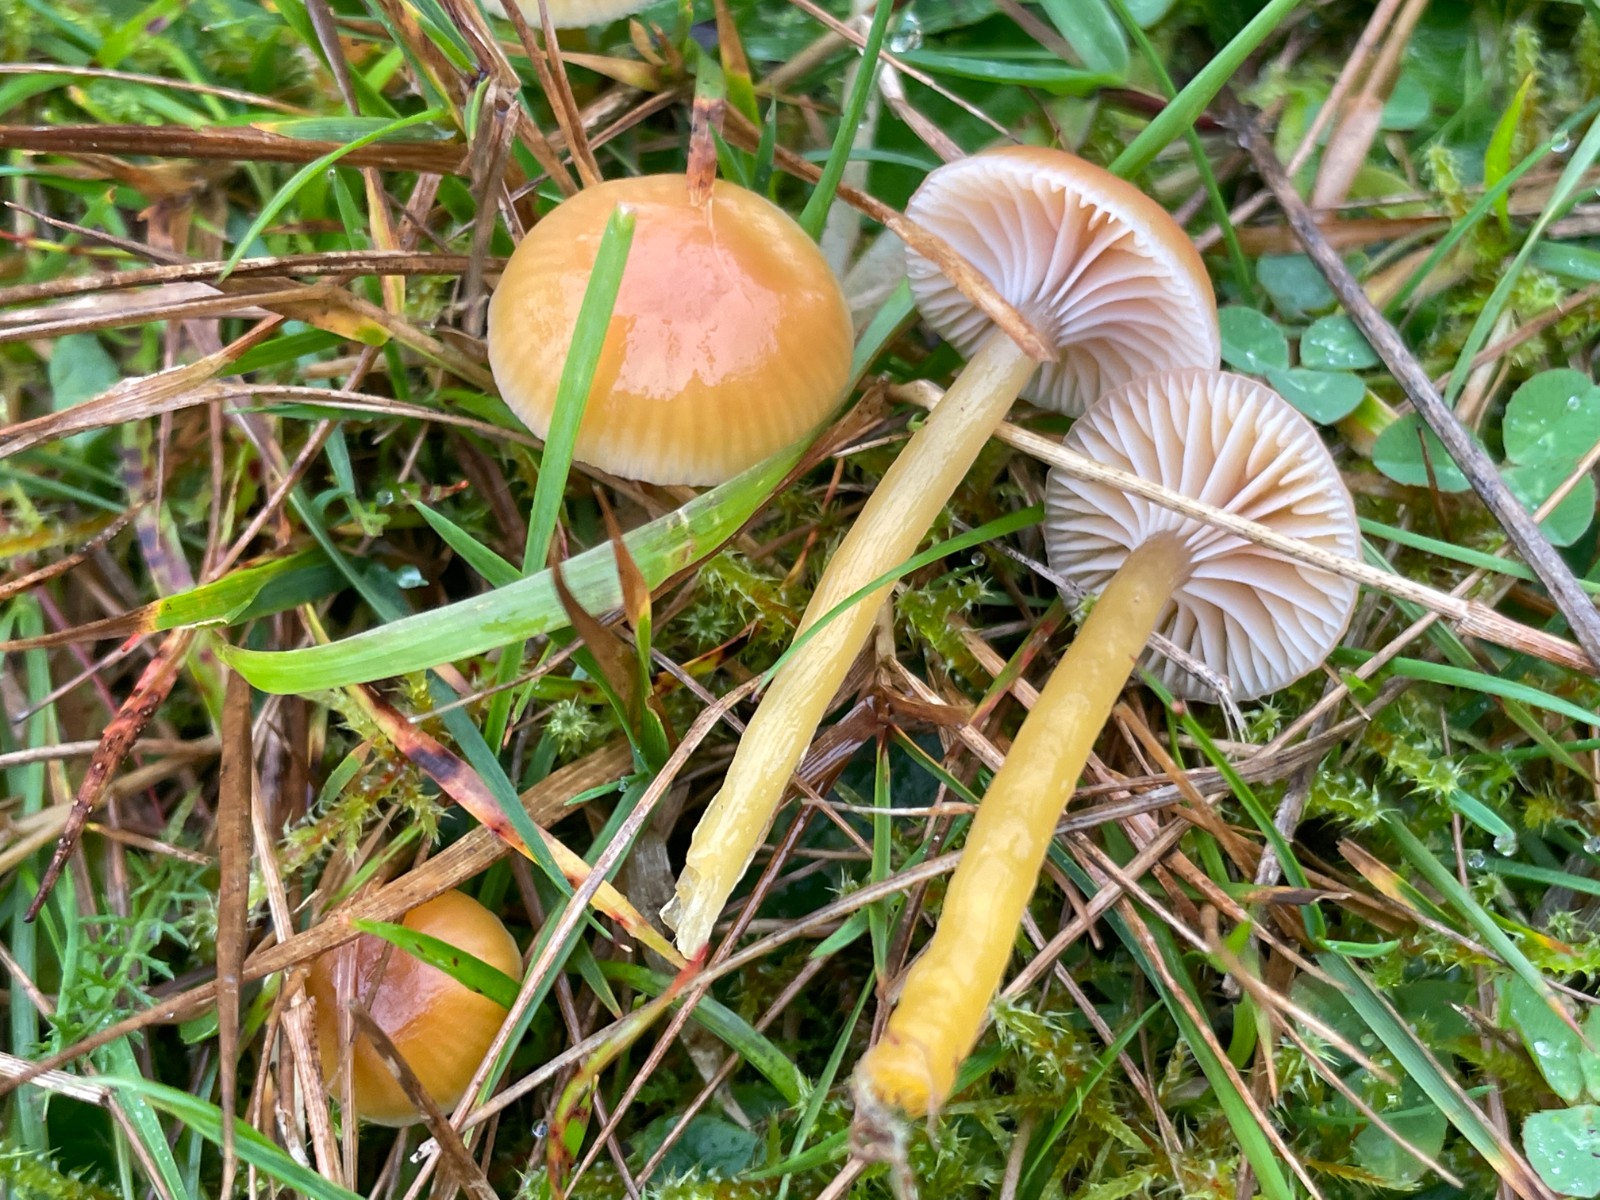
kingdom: Fungi
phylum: Basidiomycota
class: Agaricomycetes
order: Agaricales
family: Hygrophoraceae
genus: Gliophorus
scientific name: Gliophorus laetus
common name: brusk-vokshat
